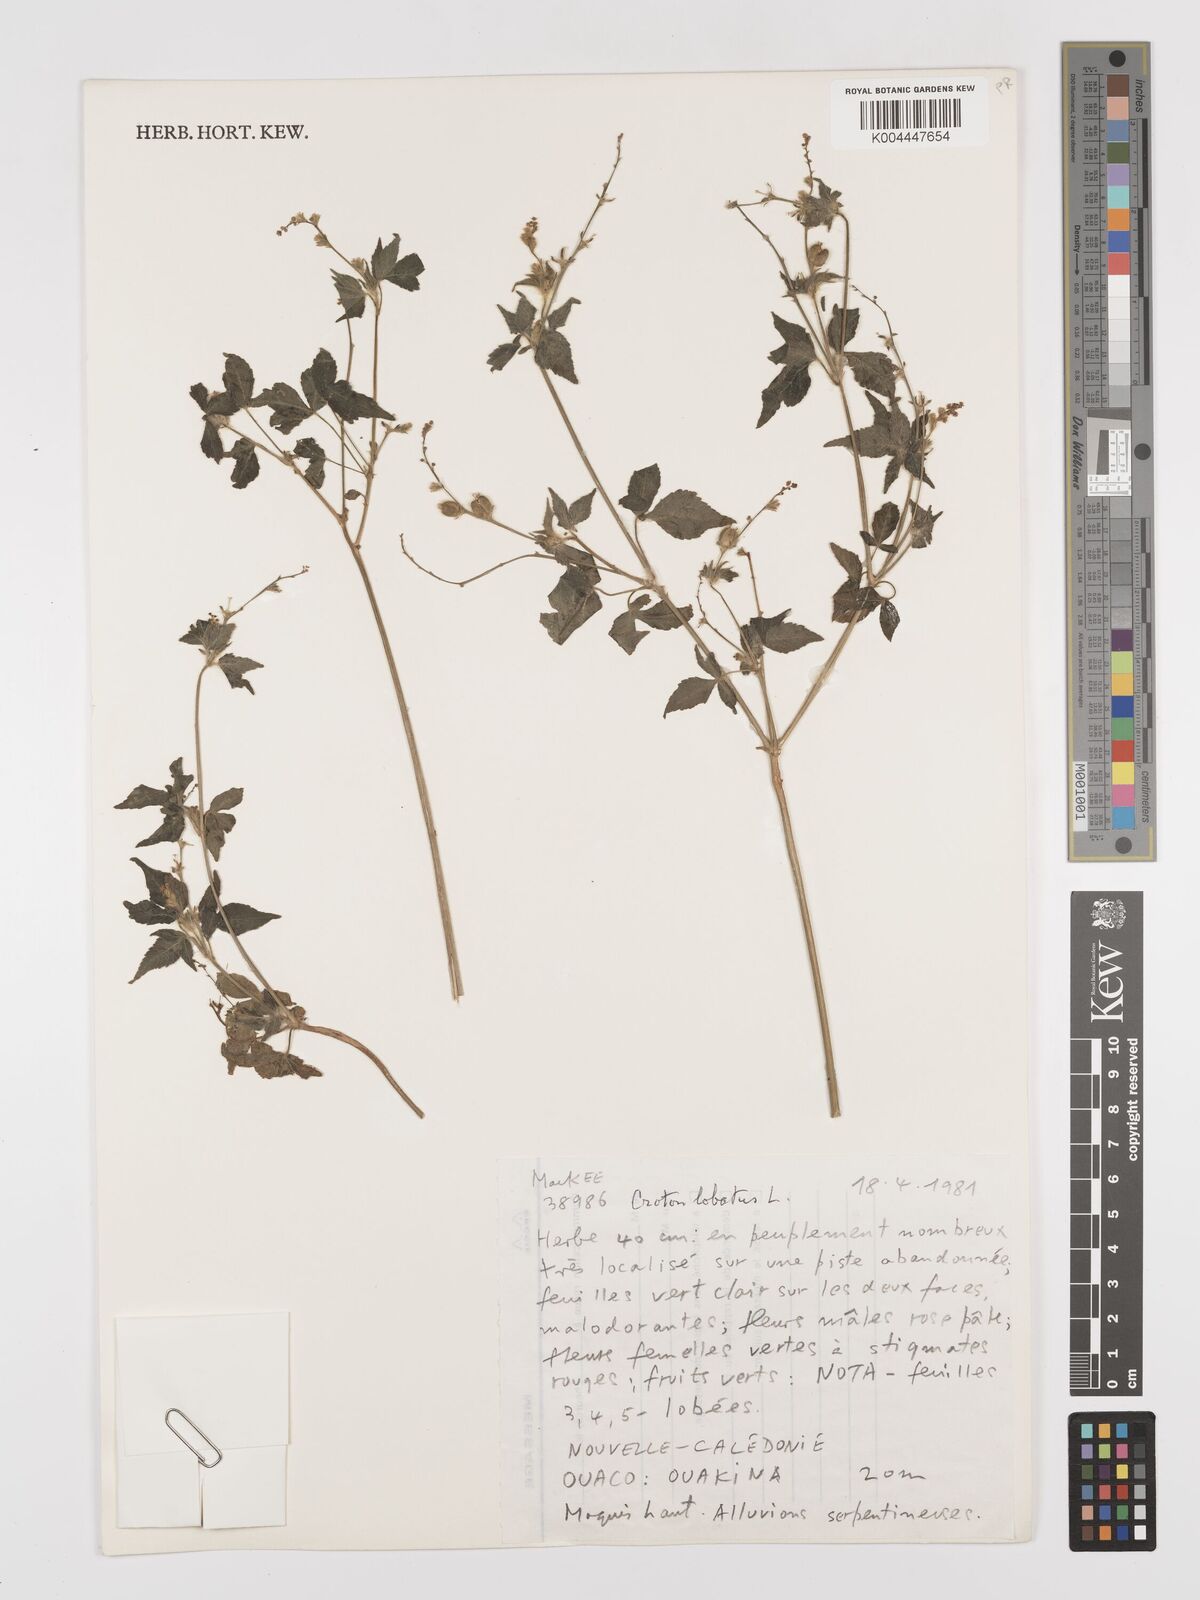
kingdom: Plantae
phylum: Tracheophyta
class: Magnoliopsida
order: Malpighiales
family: Euphorbiaceae
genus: Astraea
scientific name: Astraea lobata
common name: Lobed croton
